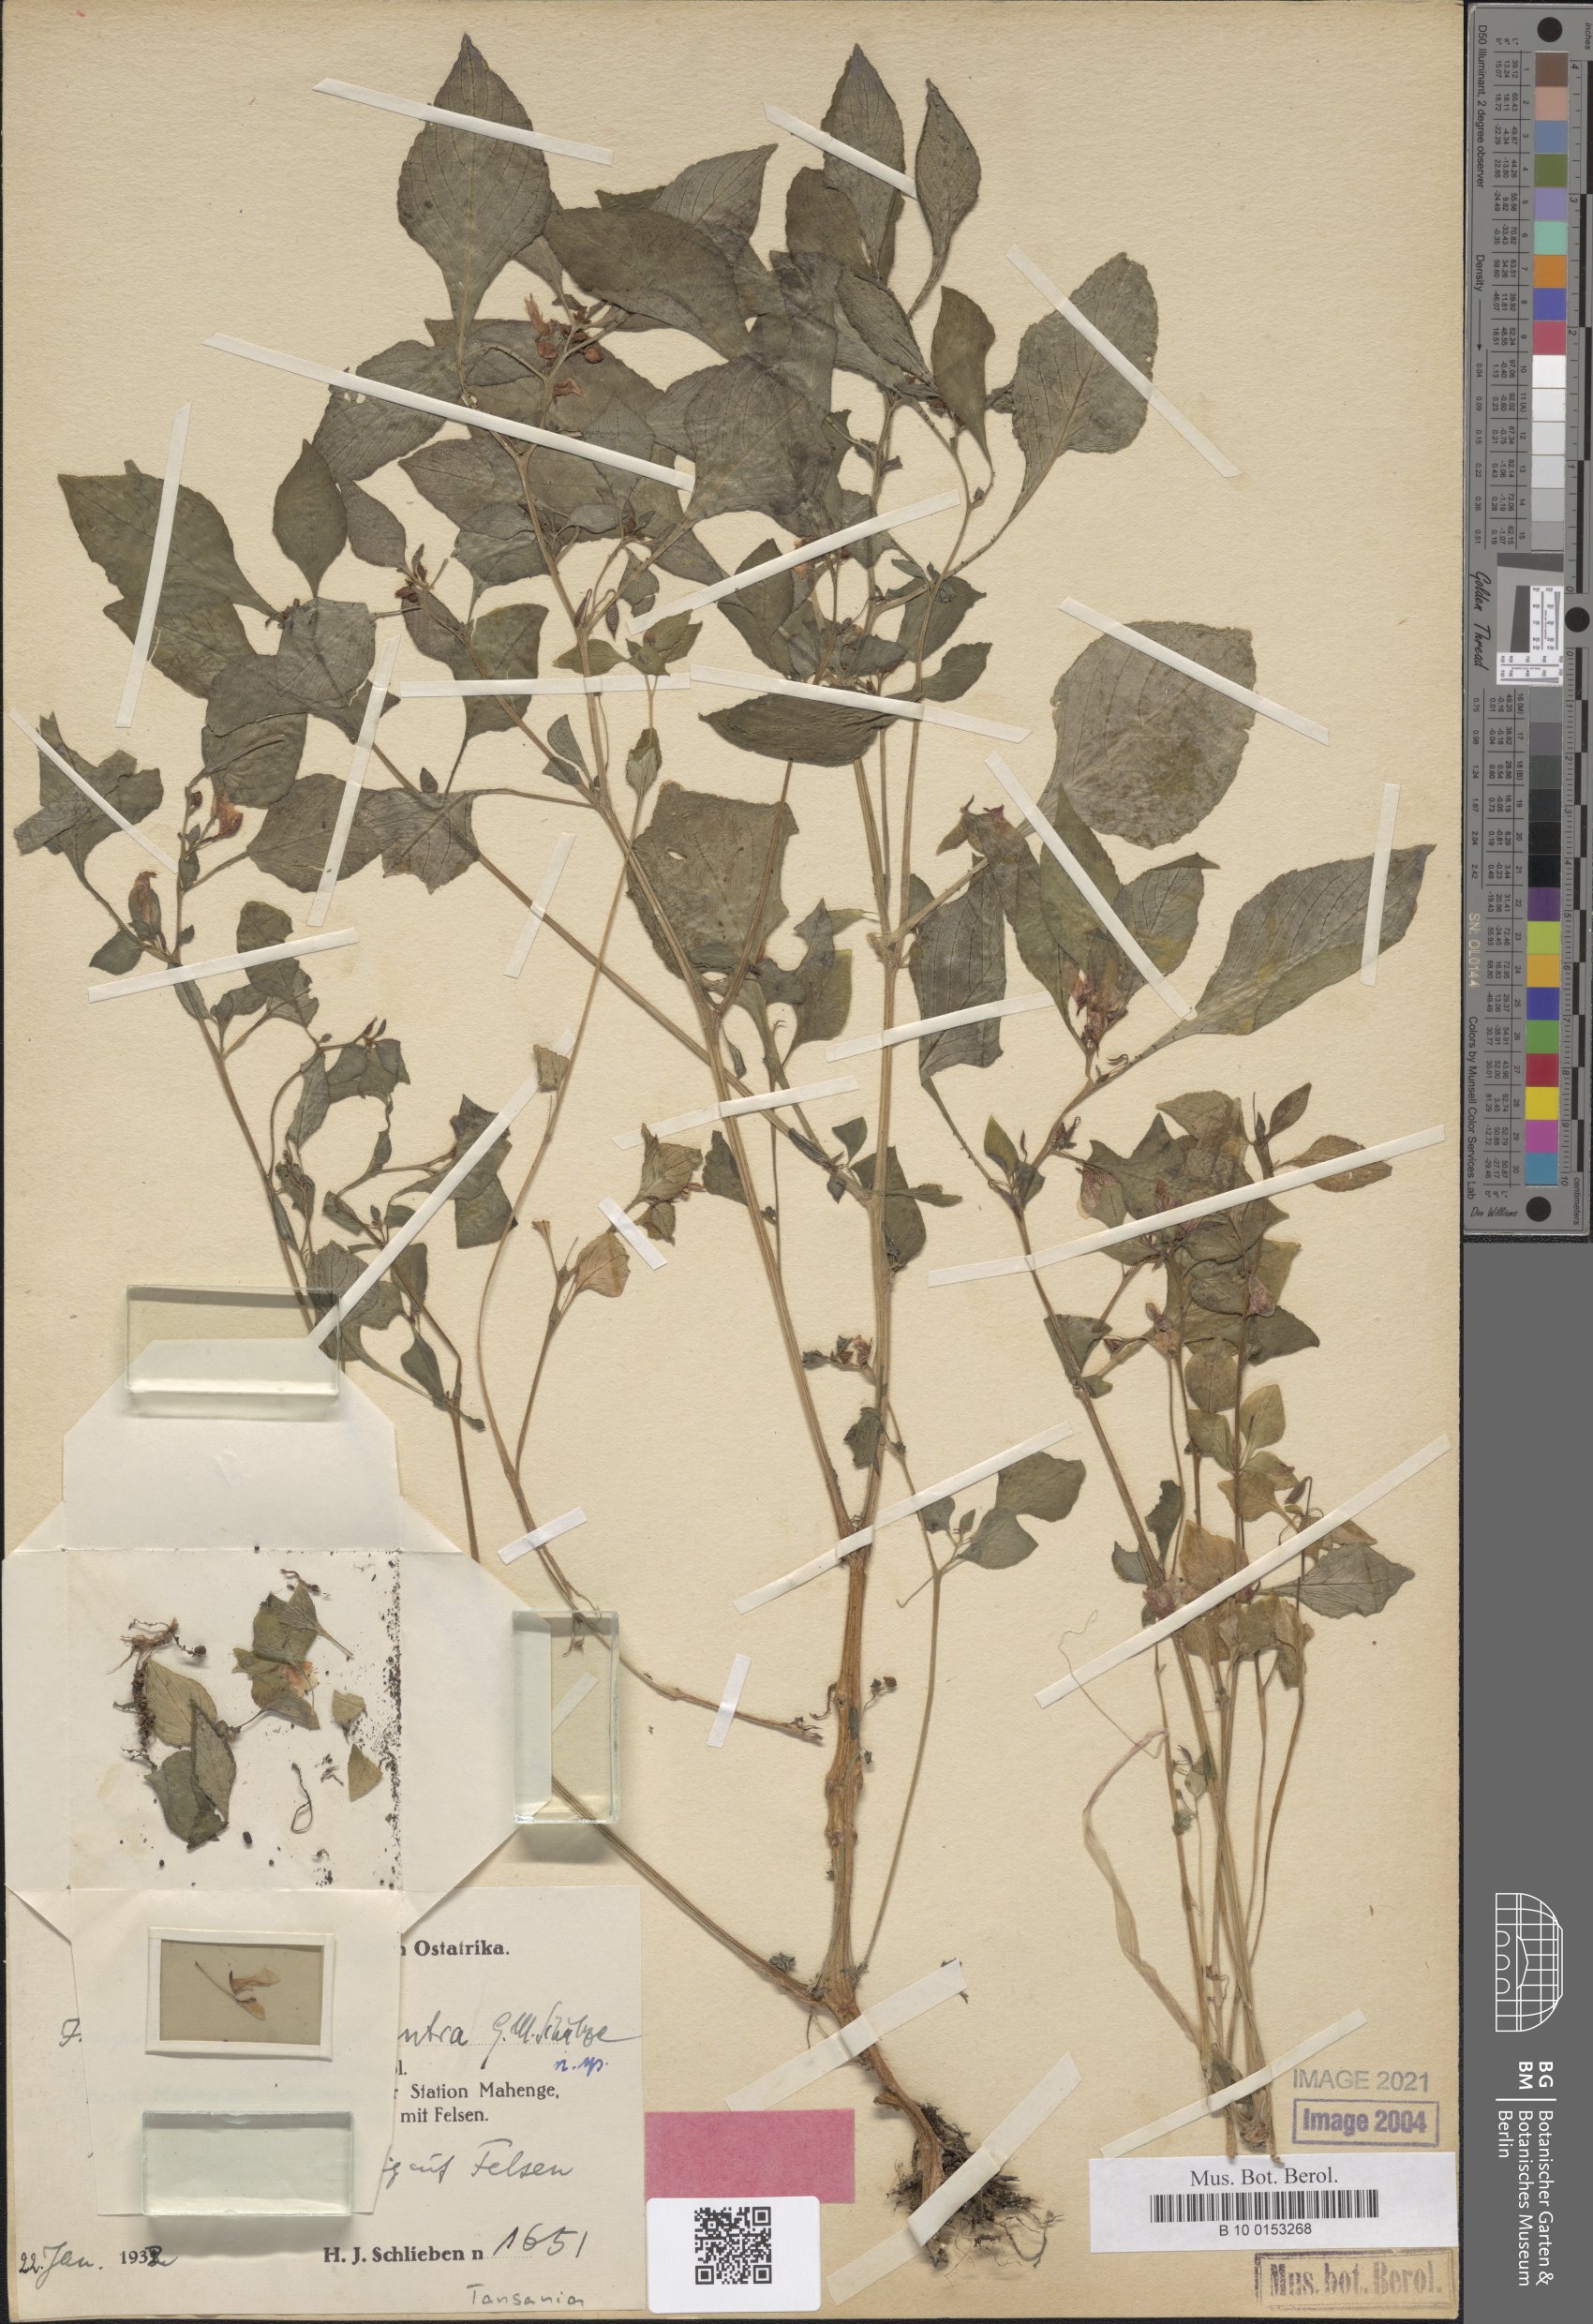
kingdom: Plantae
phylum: Tracheophyta
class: Magnoliopsida
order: Ericales
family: Balsaminaceae
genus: Impatiens
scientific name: Impatiens elachistocentra
